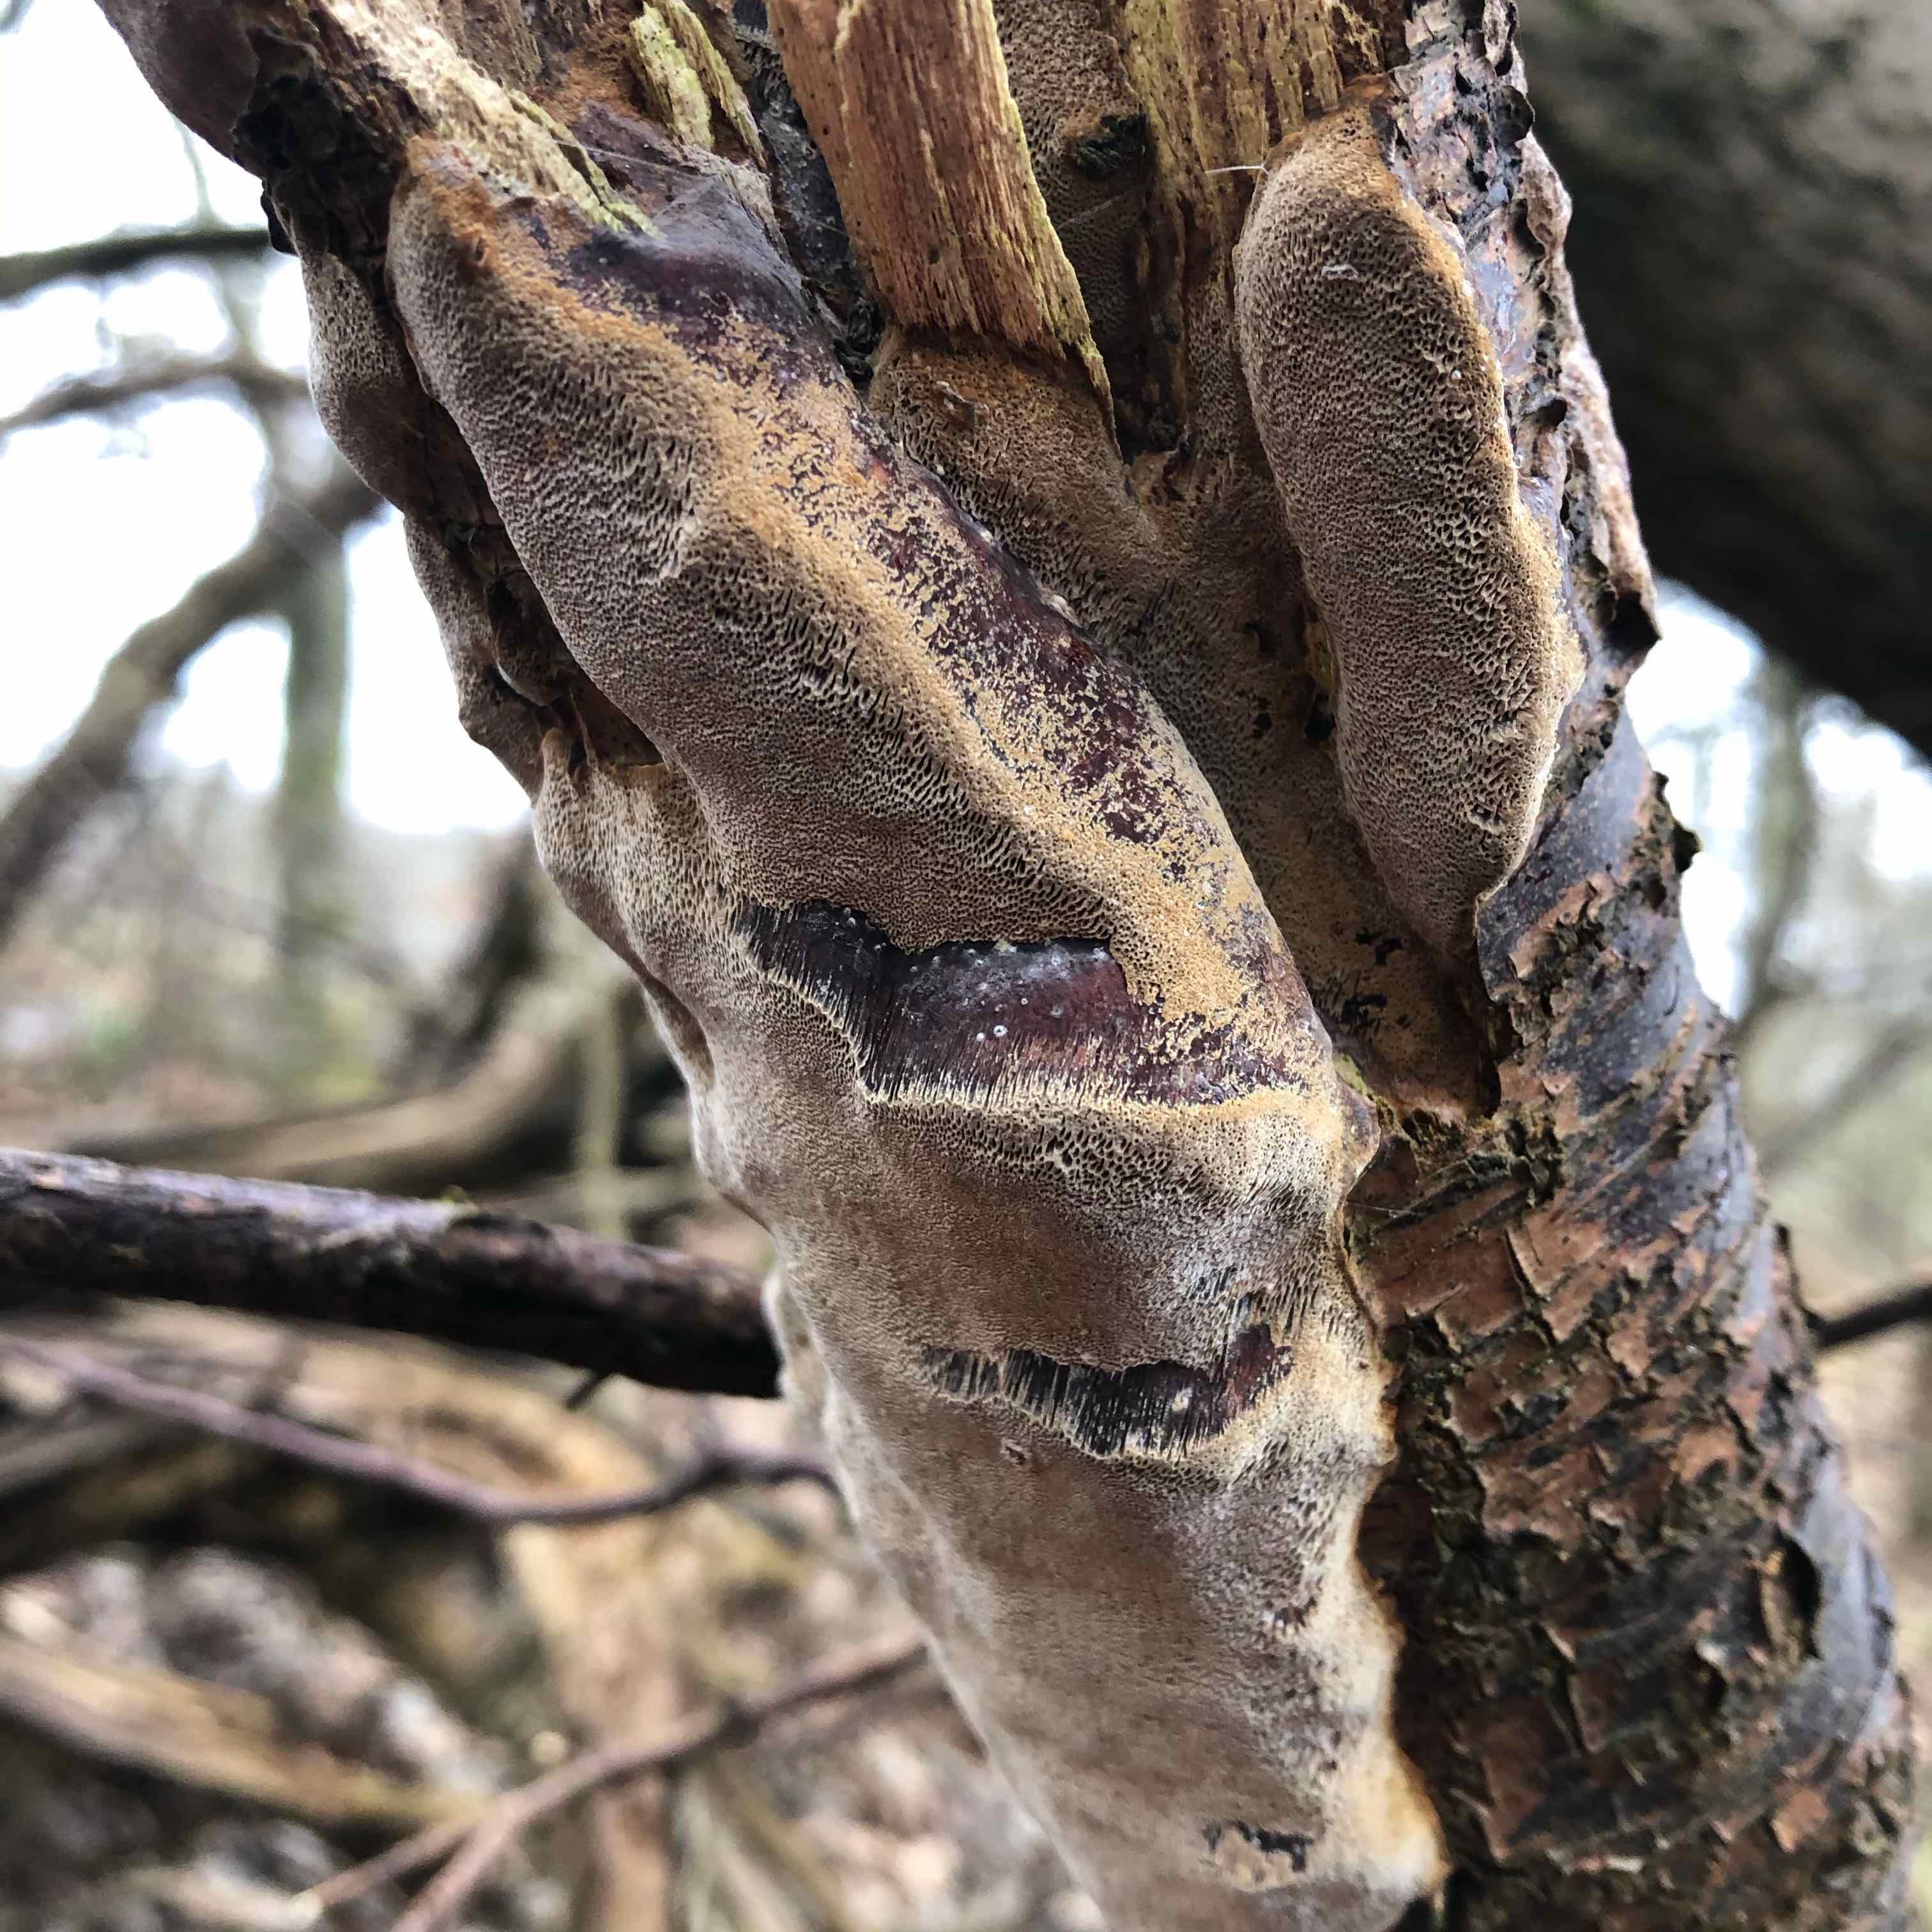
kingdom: Fungi
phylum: Basidiomycota
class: Agaricomycetes
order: Hymenochaetales
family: Hymenochaetaceae
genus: Phellinus
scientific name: Phellinus pomaceus
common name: blomme-ildporesvamp
